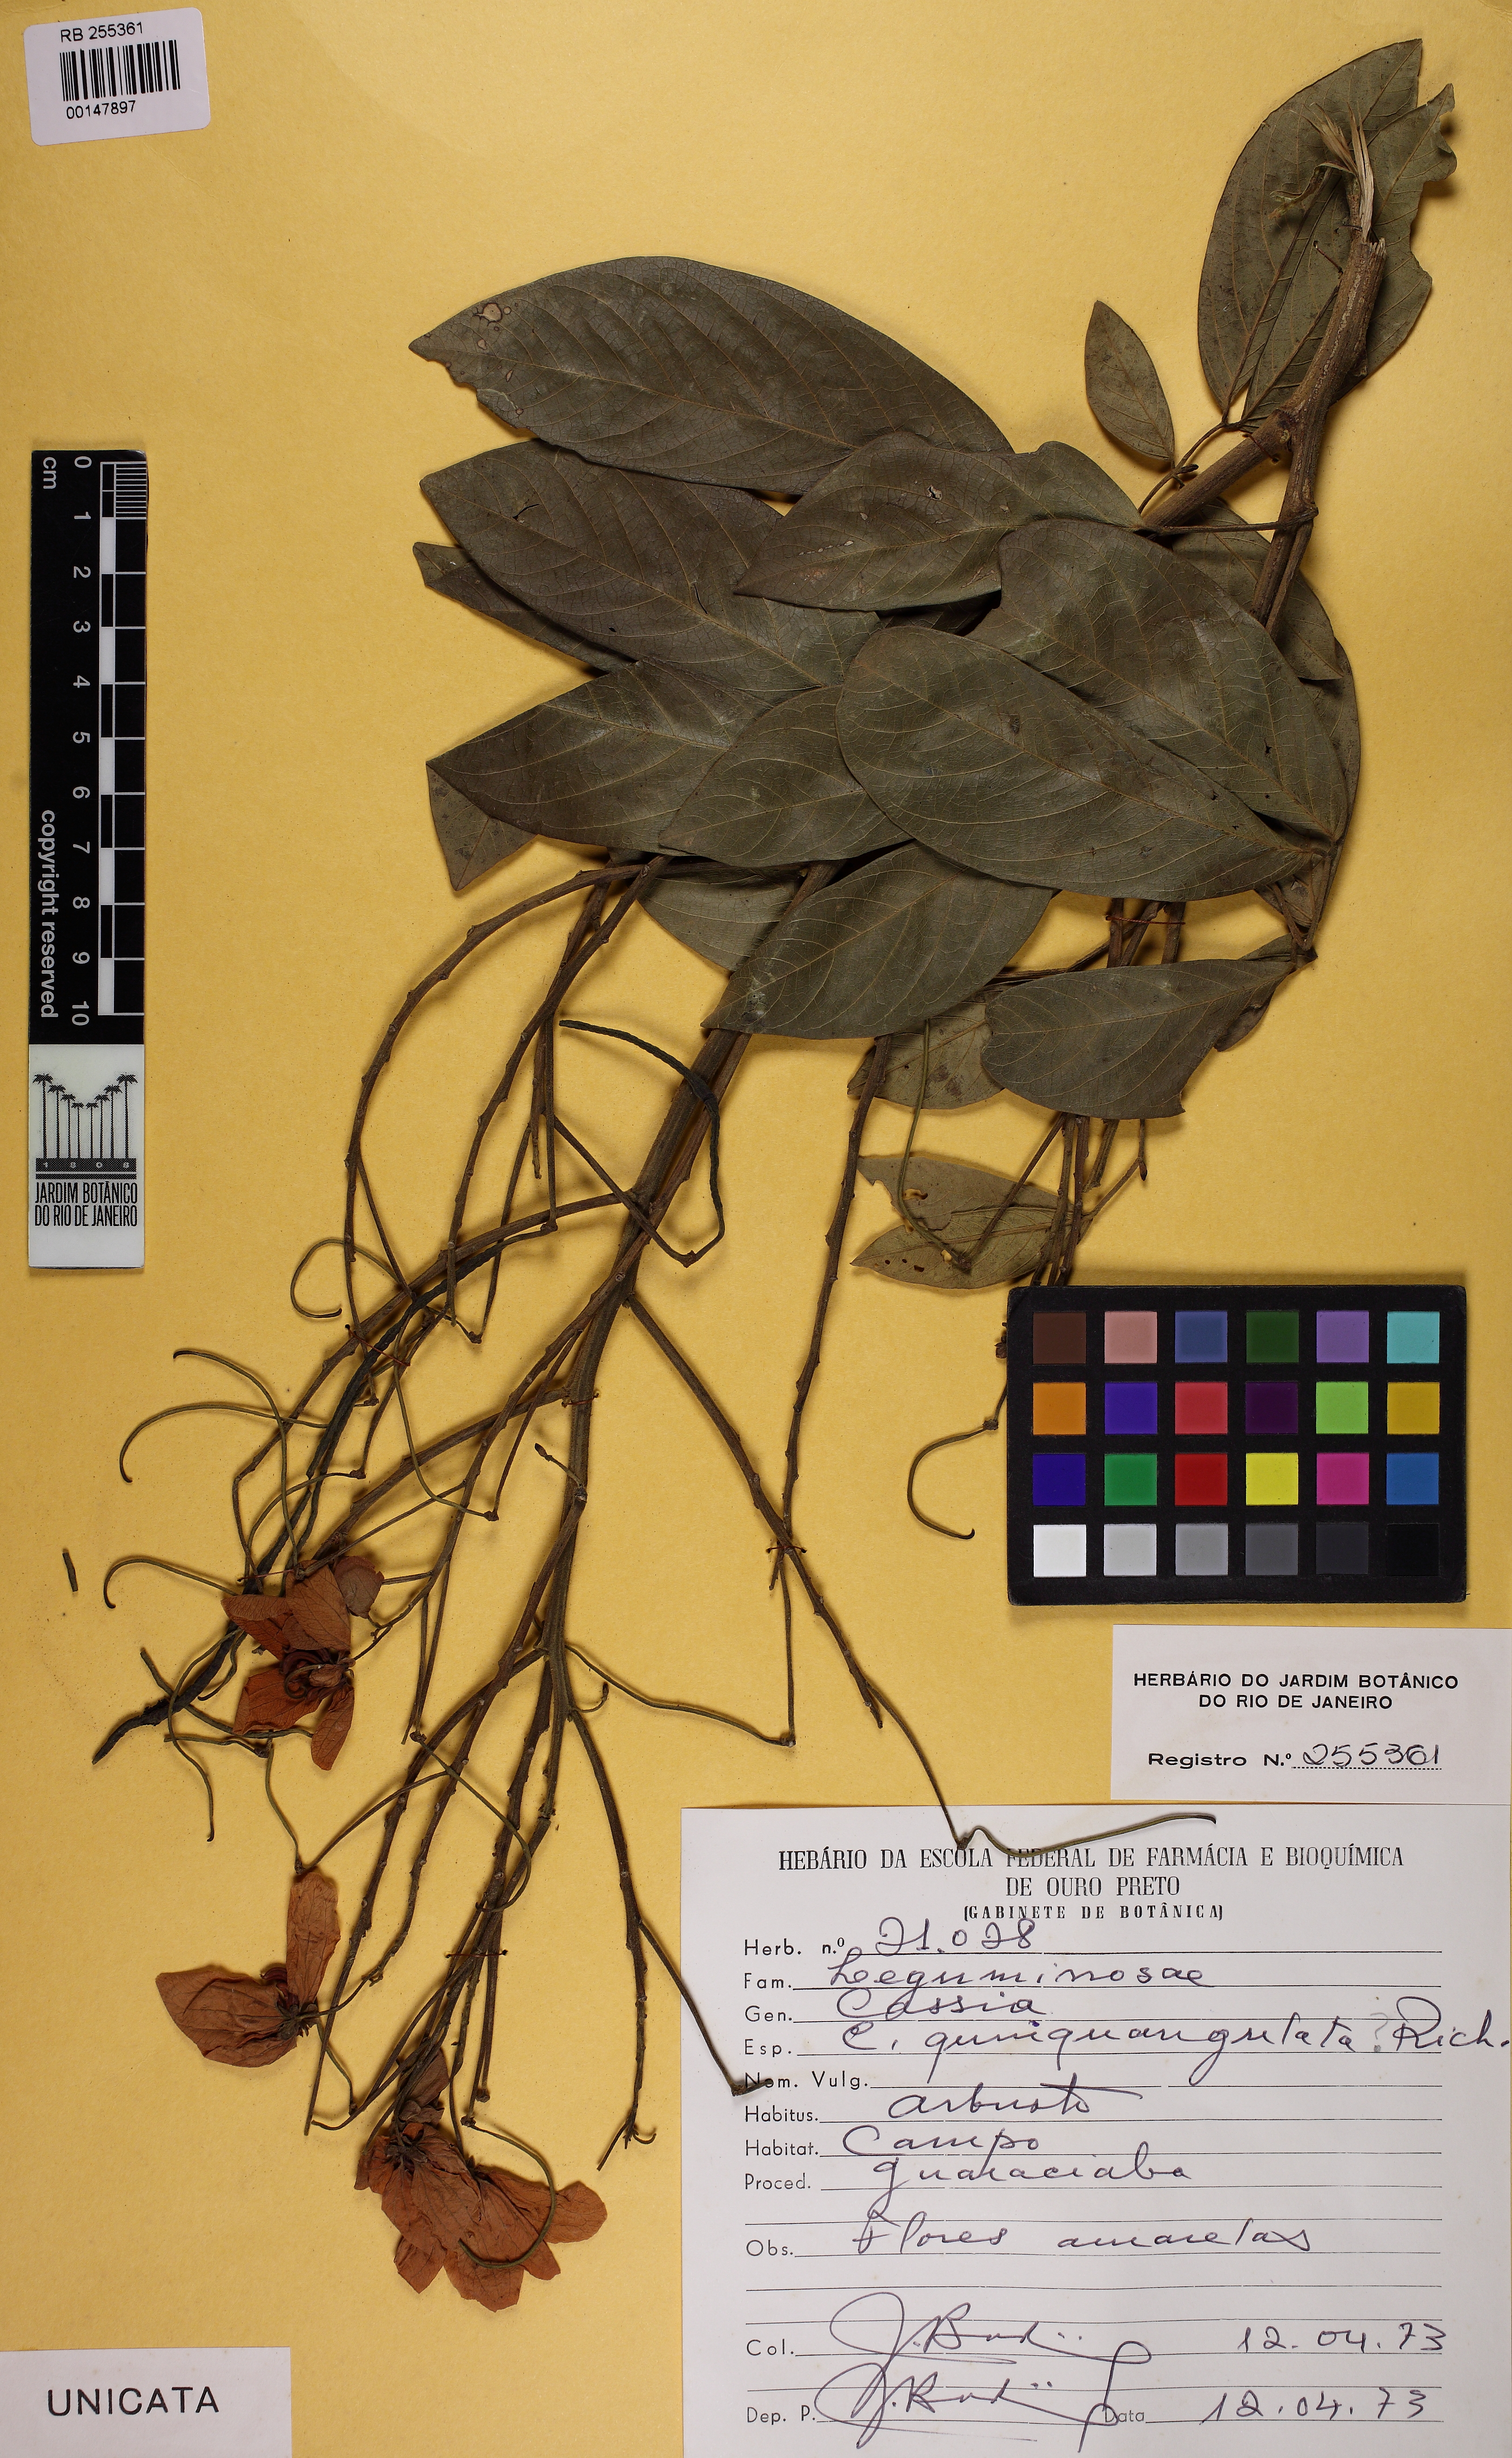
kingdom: Plantae
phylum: Tracheophyta
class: Magnoliopsida
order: Fabales
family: Fabaceae
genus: Senna
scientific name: Senna macranthera
